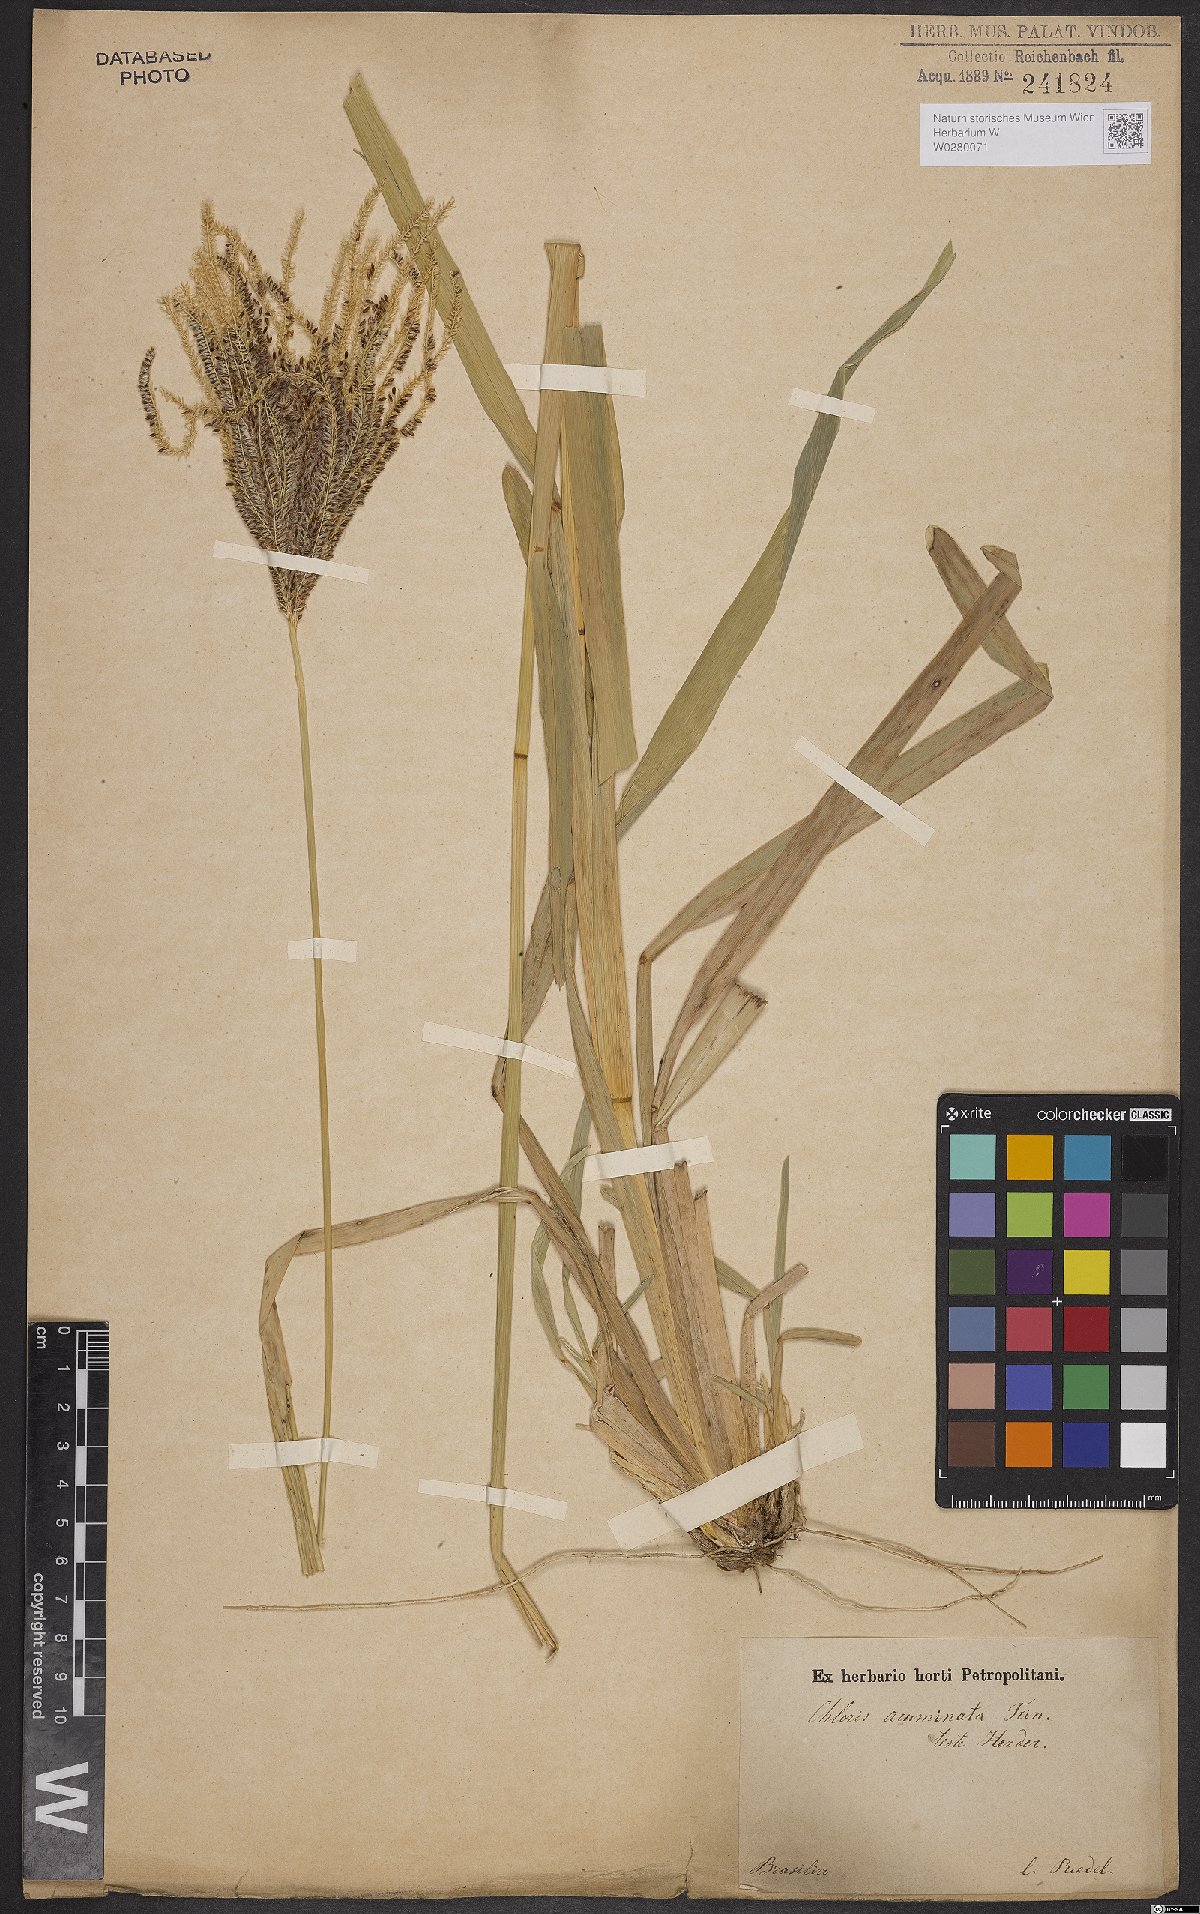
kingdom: Plantae
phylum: Tracheophyta
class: Liliopsida
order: Poales
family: Poaceae
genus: Eustachys
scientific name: Eustachys distichophylla
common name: Weeping fingergrass
